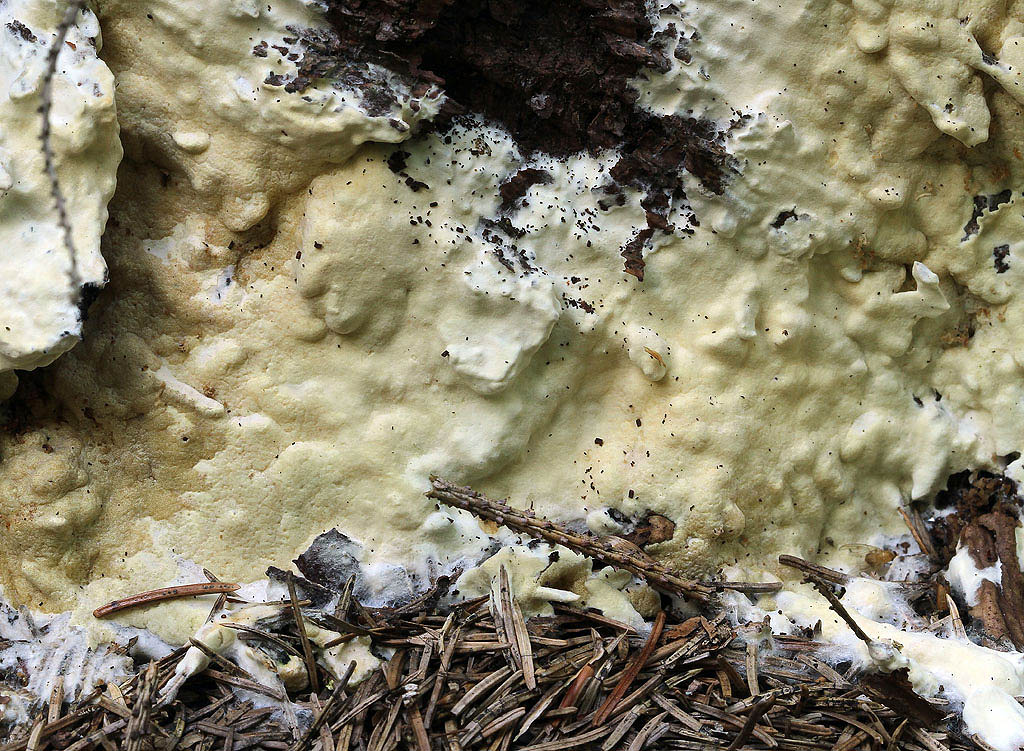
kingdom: Fungi
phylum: Ascomycota
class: Sordariomycetes
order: Hypocreales
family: Hypocreaceae
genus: Trichoderma
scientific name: Trichoderma citrinum
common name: udbredt kødkerne
